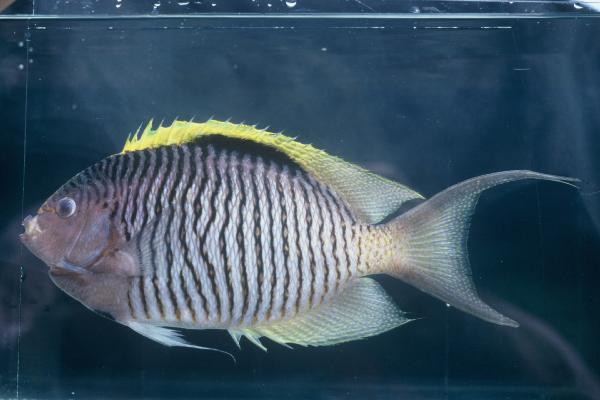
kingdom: Animalia
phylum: Chordata
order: Perciformes
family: Pomacanthidae
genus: Genicanthus
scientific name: Genicanthus caudovittatus
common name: Lyretail angelfish
